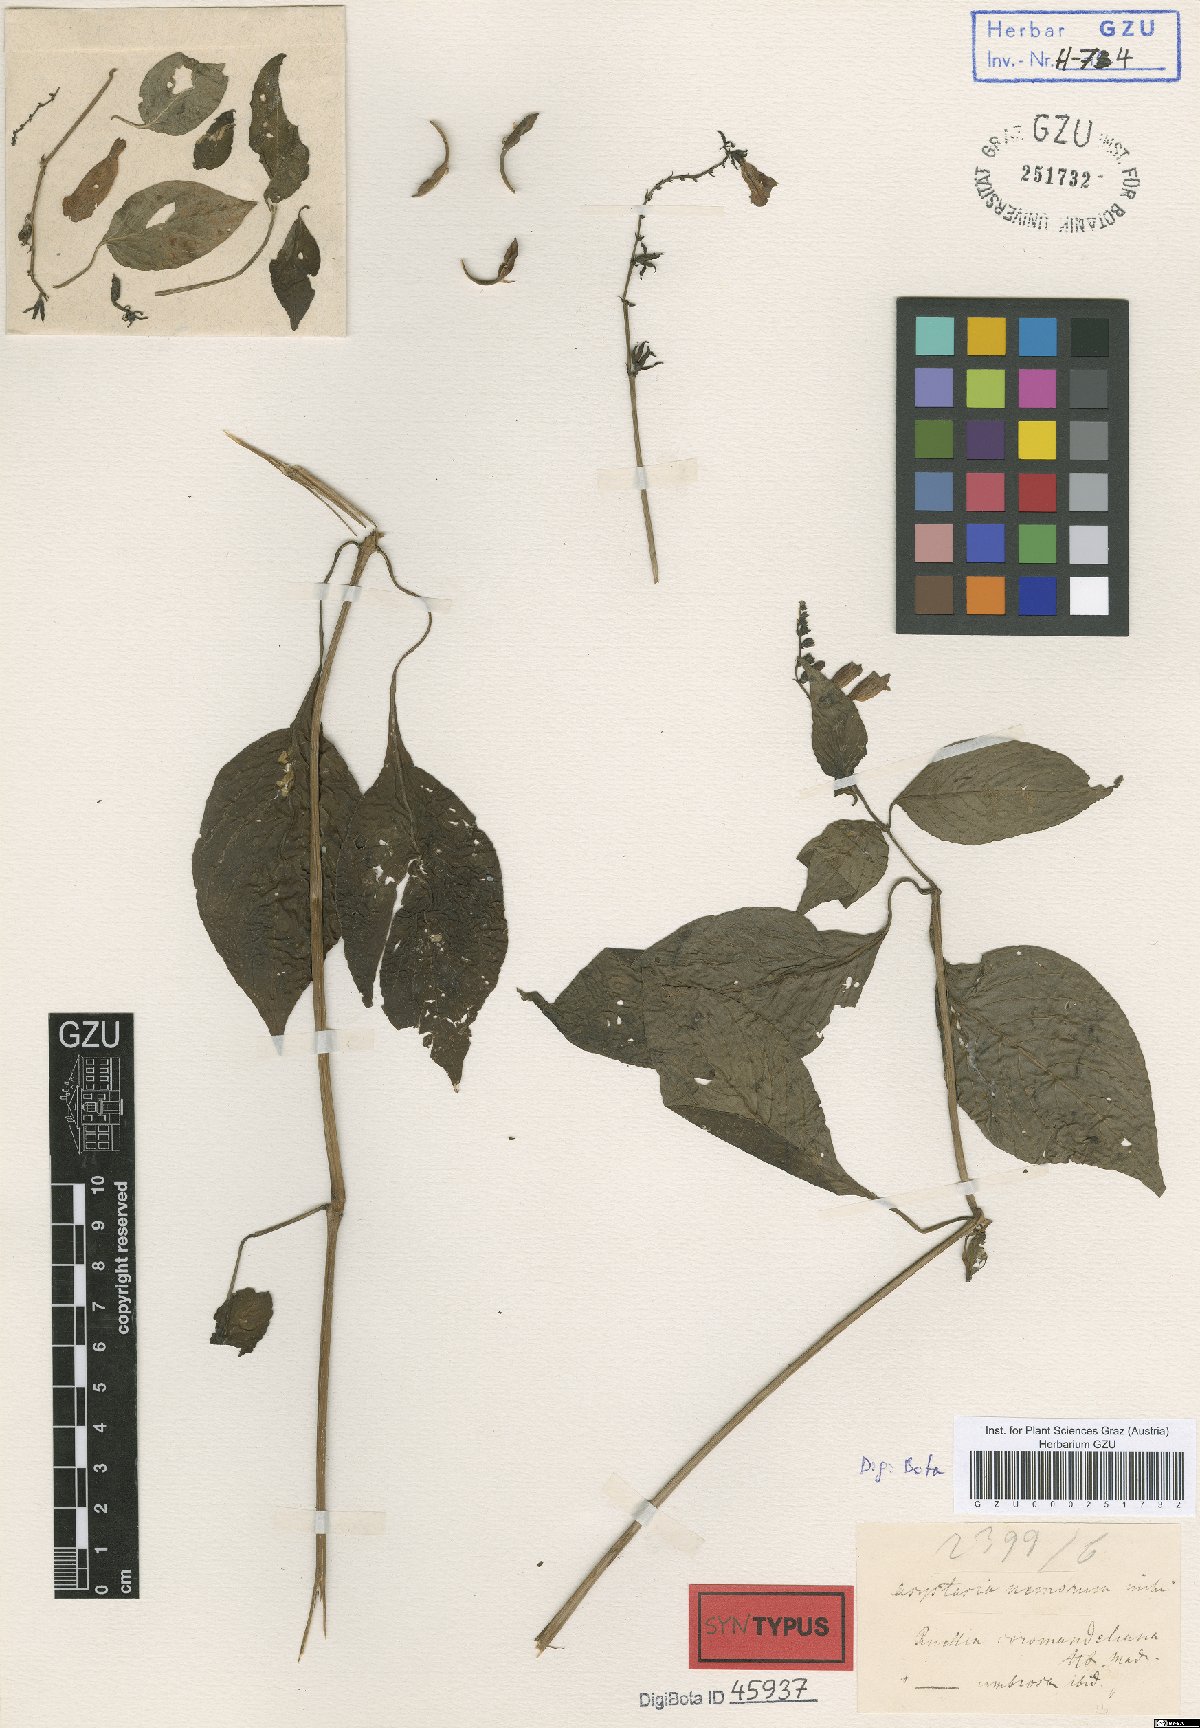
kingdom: Plantae
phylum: Tracheophyta
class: Magnoliopsida
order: Lamiales
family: Acanthaceae
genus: Asystasia
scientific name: Asystasia nemorum
